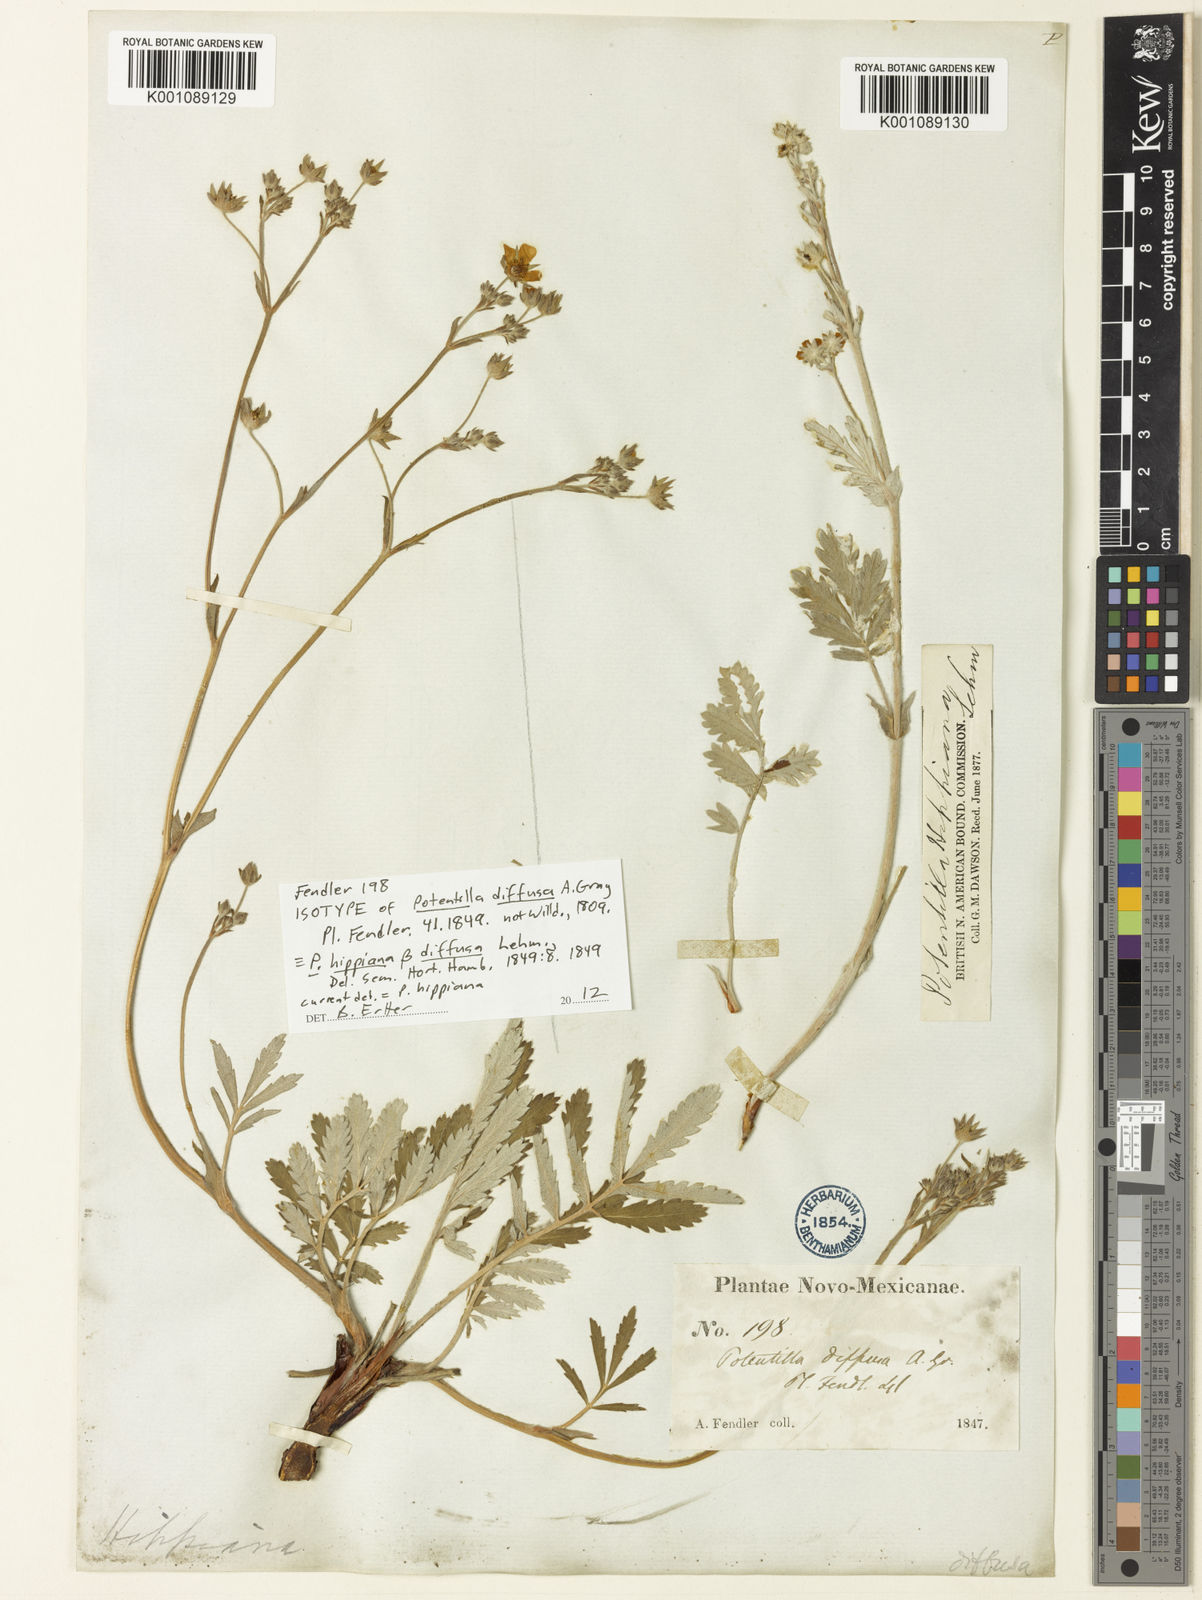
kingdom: Plantae
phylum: Tracheophyta
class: Magnoliopsida
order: Rosales
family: Rosaceae
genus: Potentilla
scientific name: Potentilla hippiana
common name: Woolly cinquefoil
